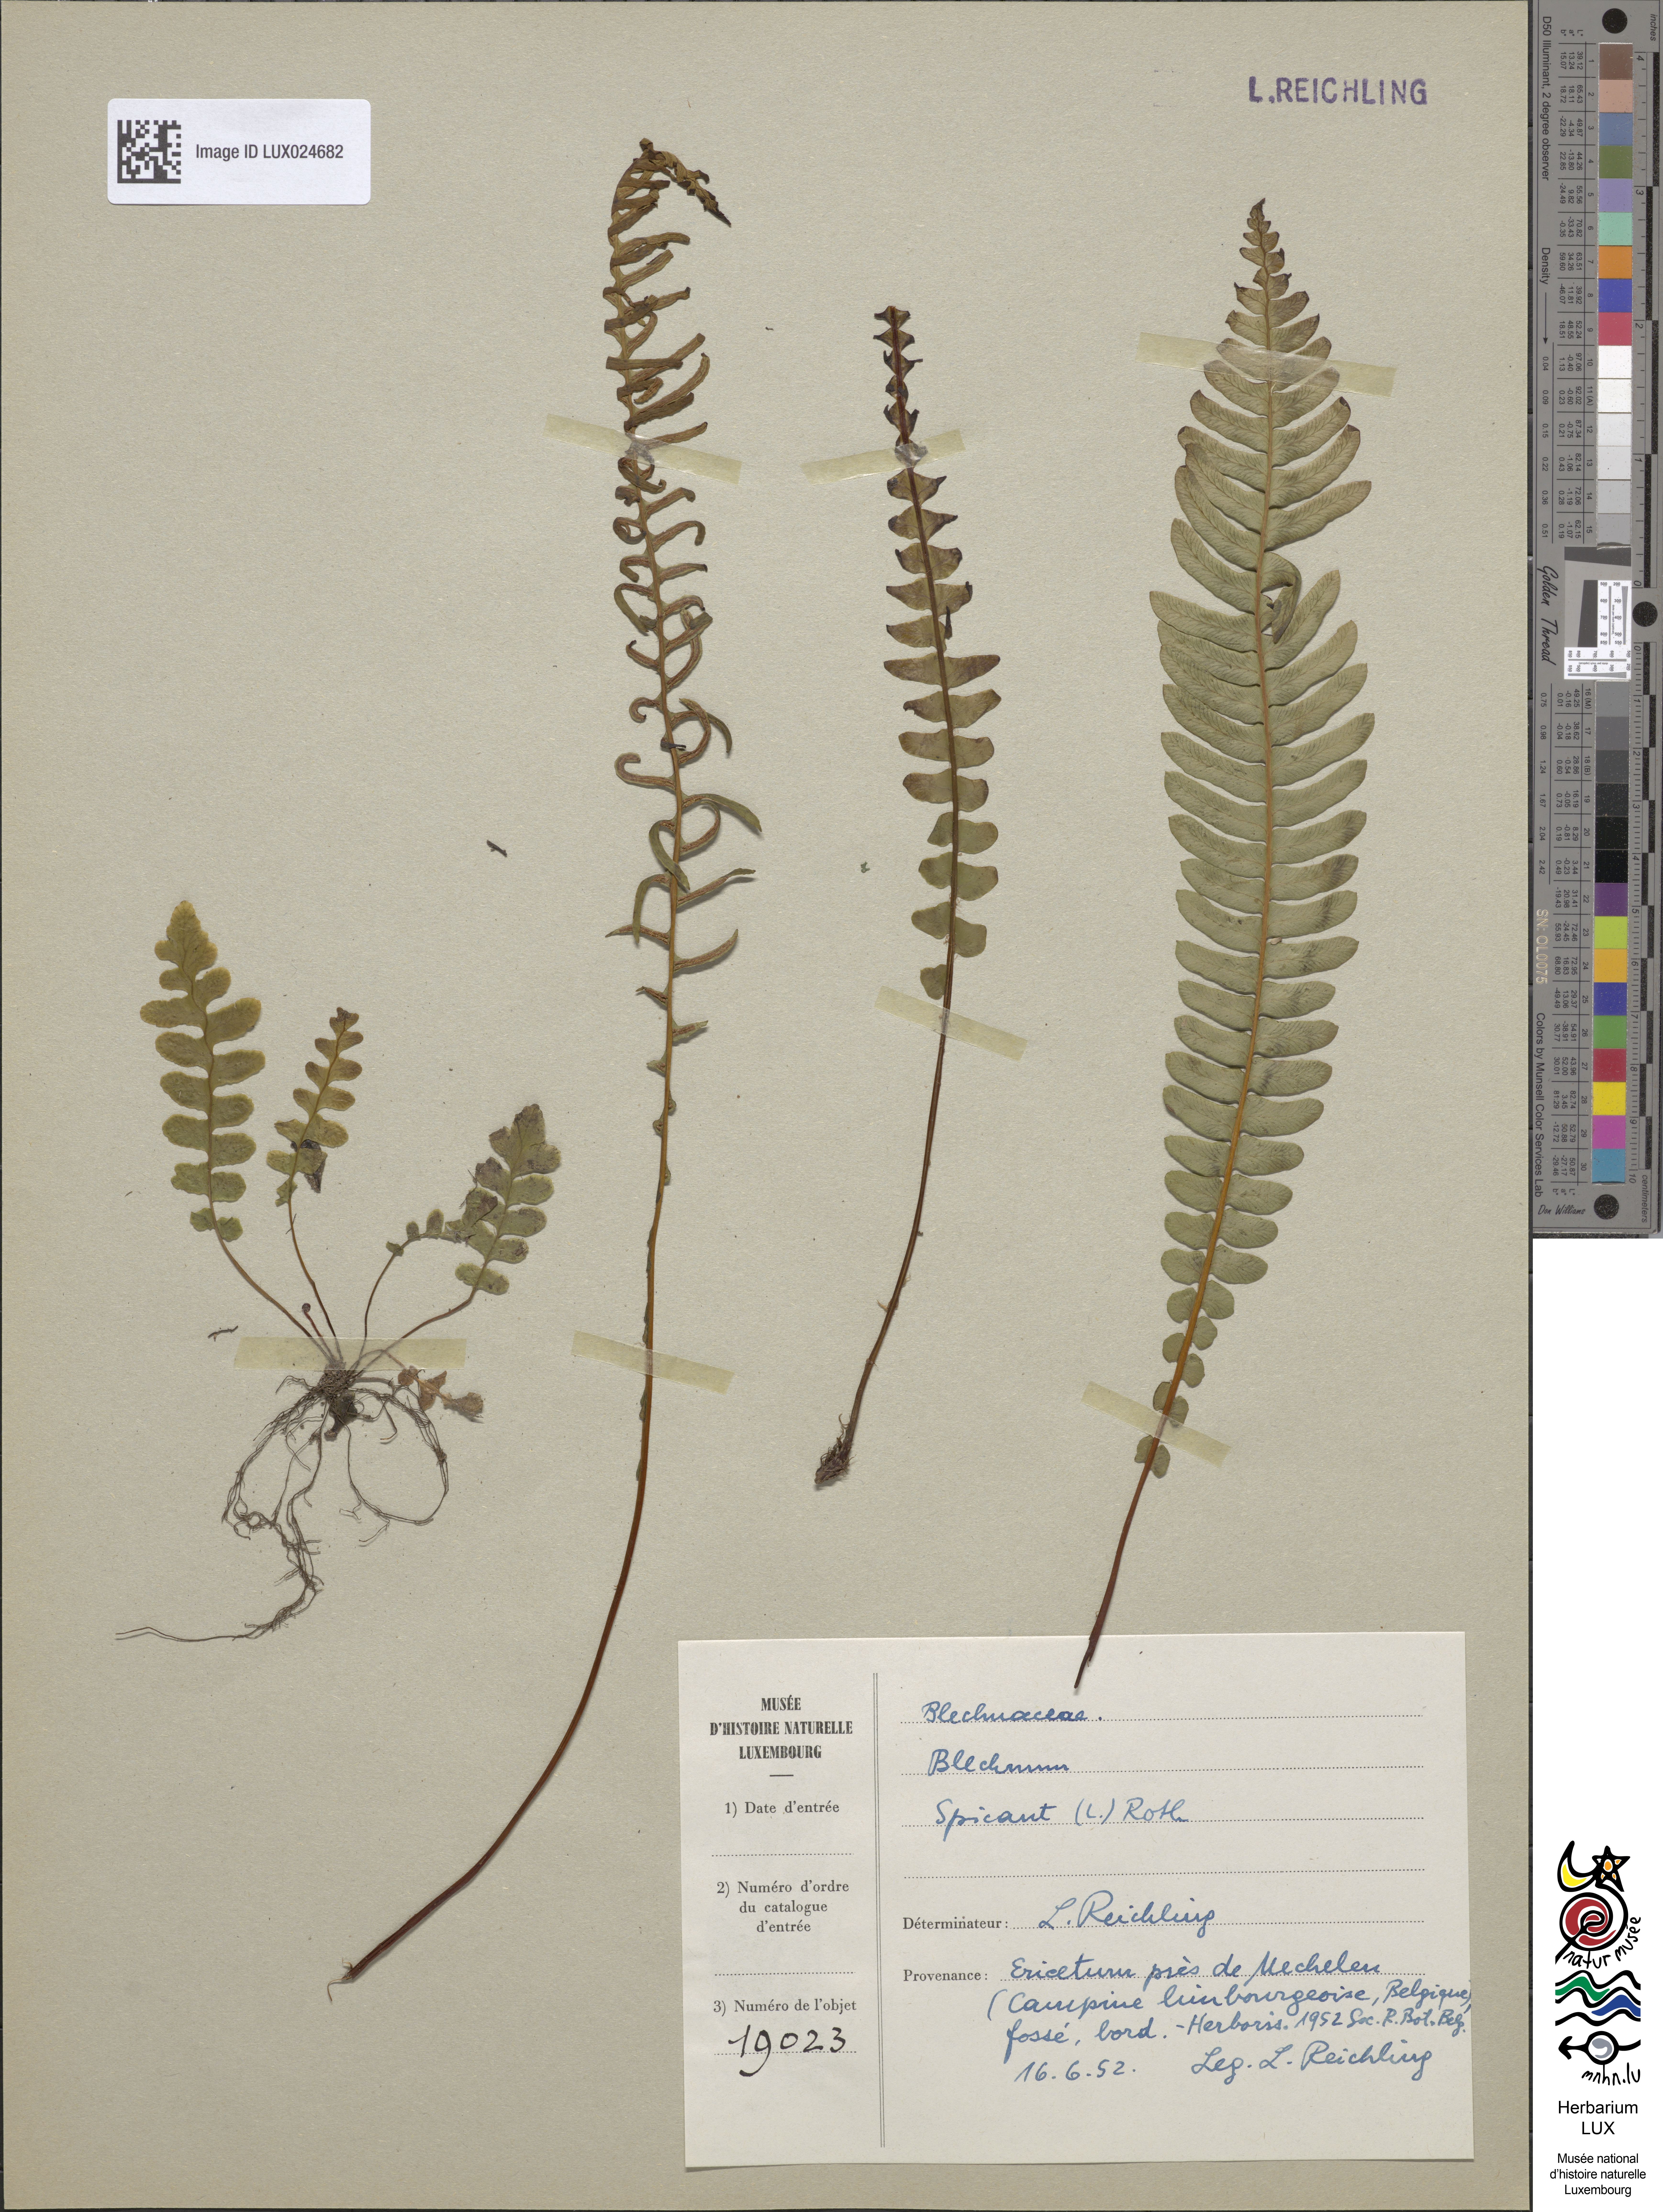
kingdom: Plantae
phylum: Tracheophyta
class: Polypodiopsida
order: Polypodiales
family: Blechnaceae
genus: Struthiopteris
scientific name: Struthiopteris spicant
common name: Deer fern
